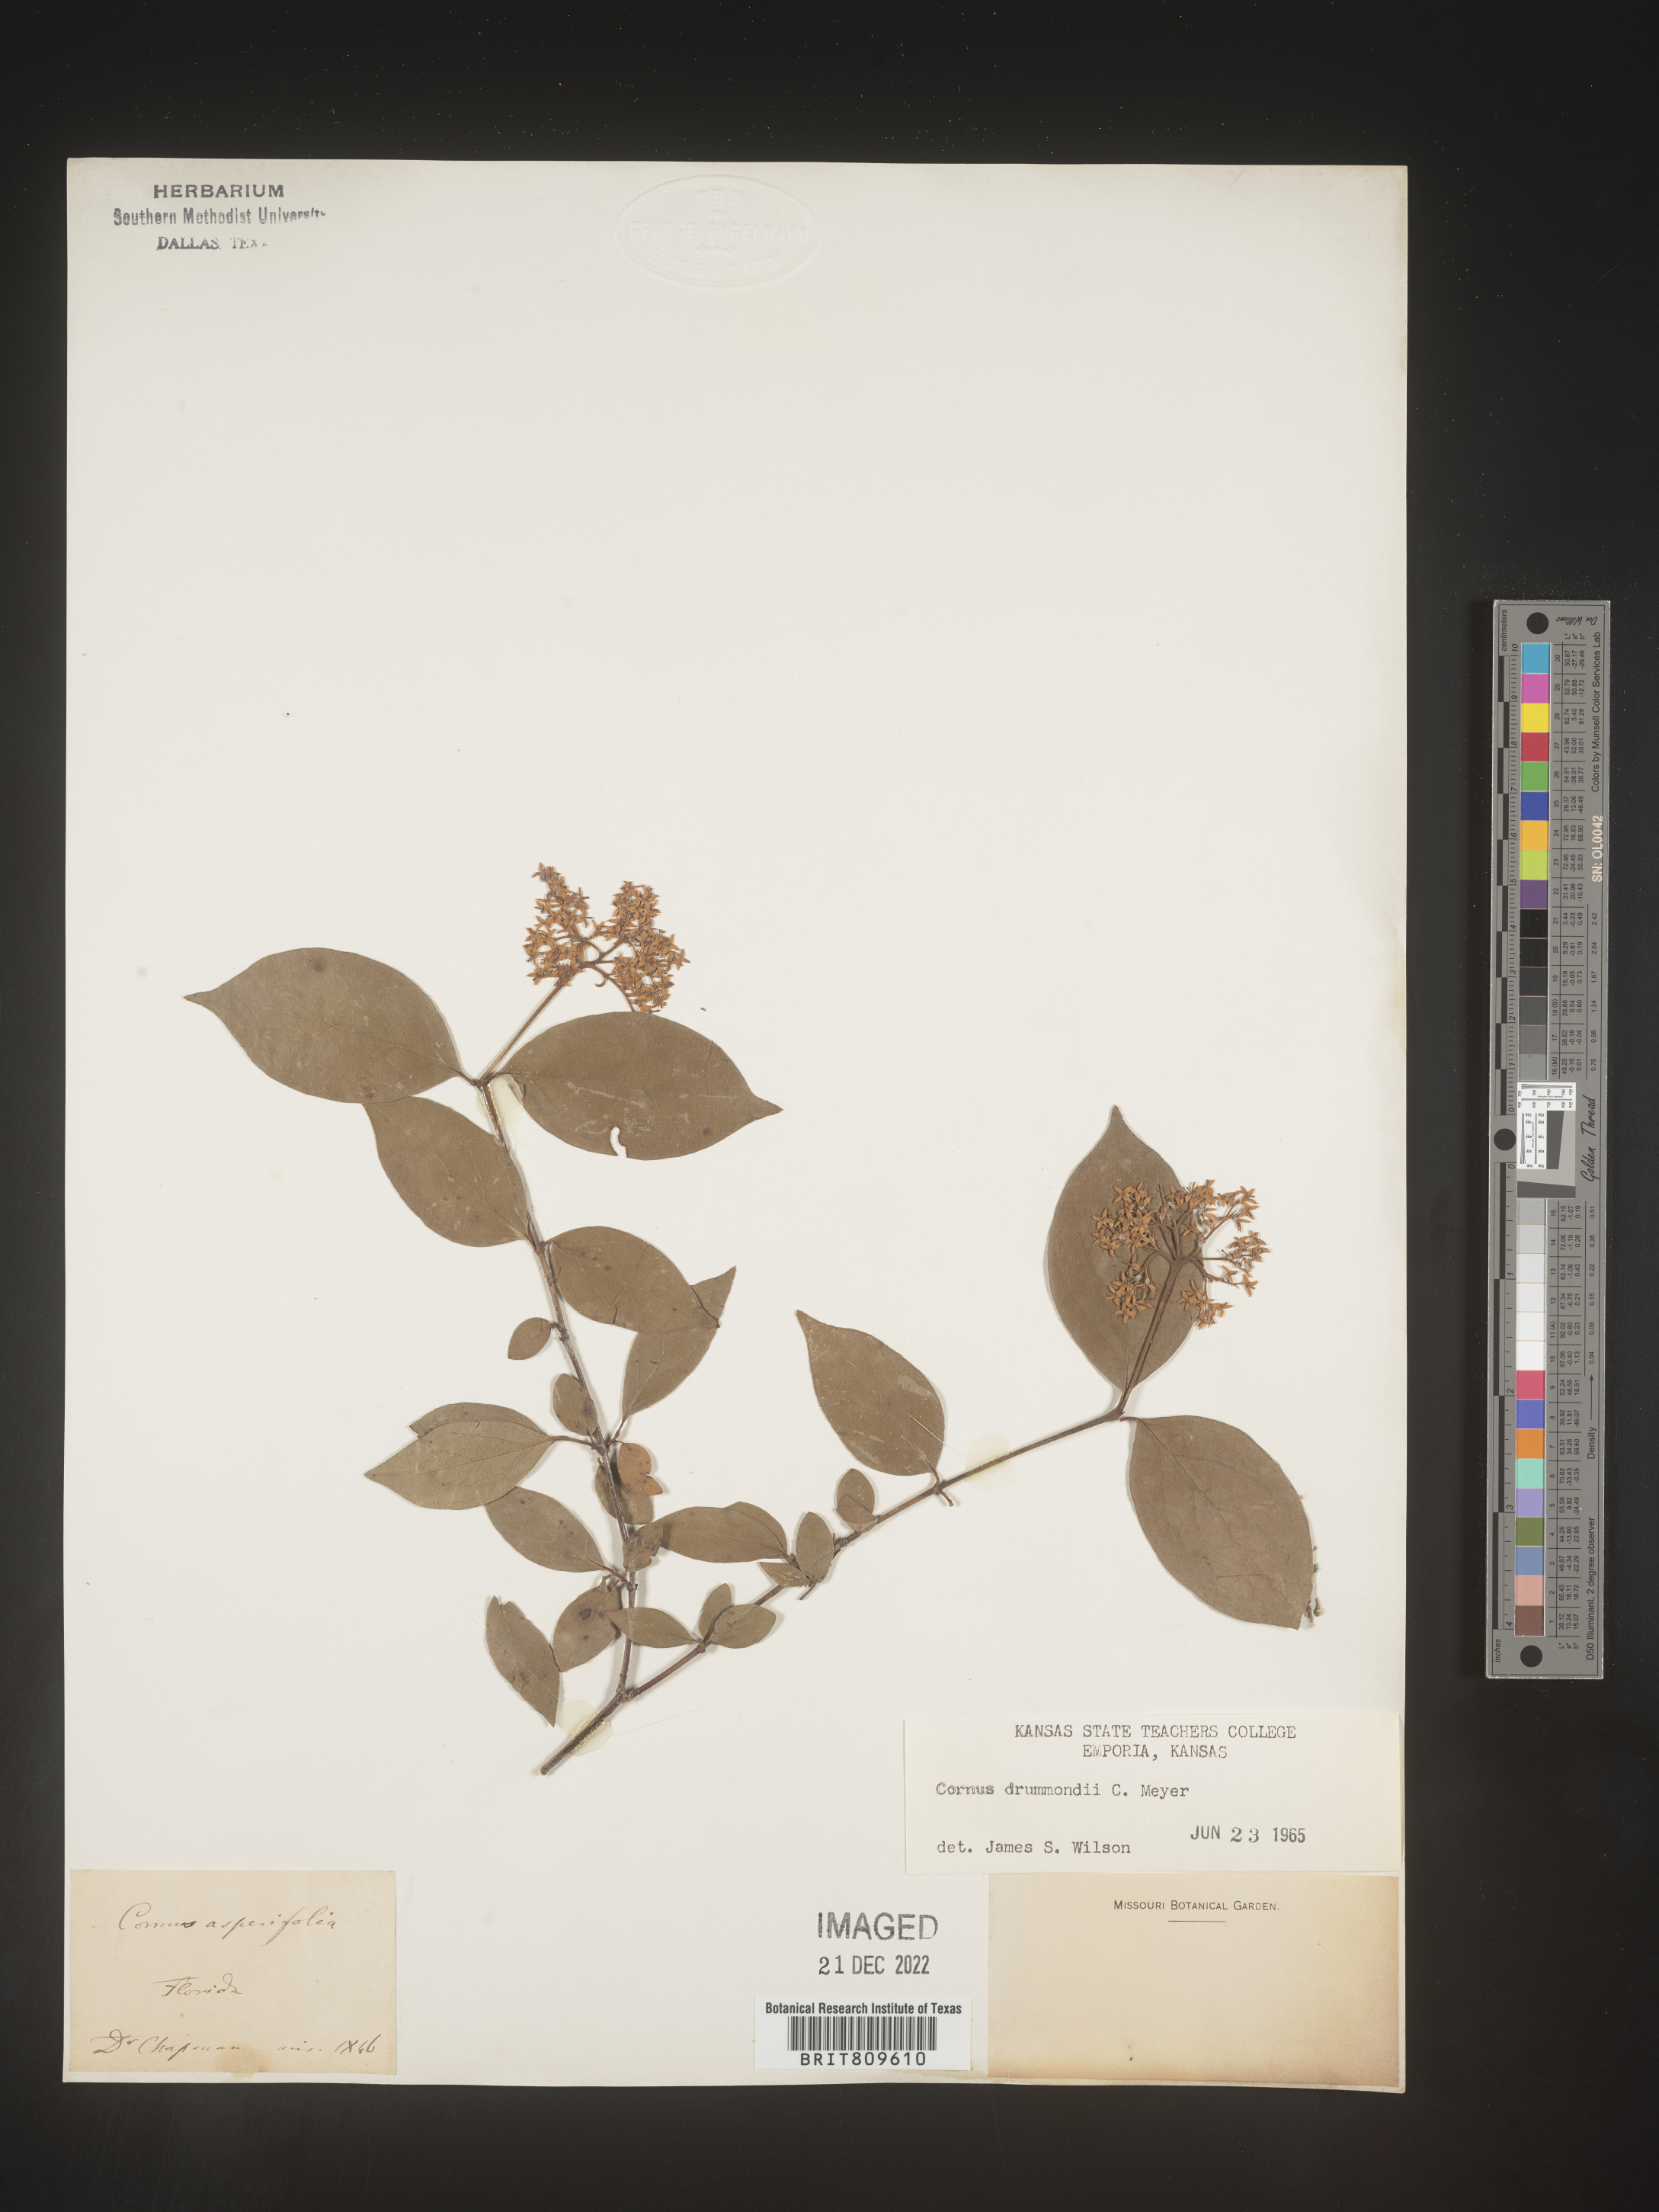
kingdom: Plantae
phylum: Tracheophyta
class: Magnoliopsida
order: Cornales
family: Cornaceae
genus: Cornus
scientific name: Cornus drummondii
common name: Rough-leaf dogwood
